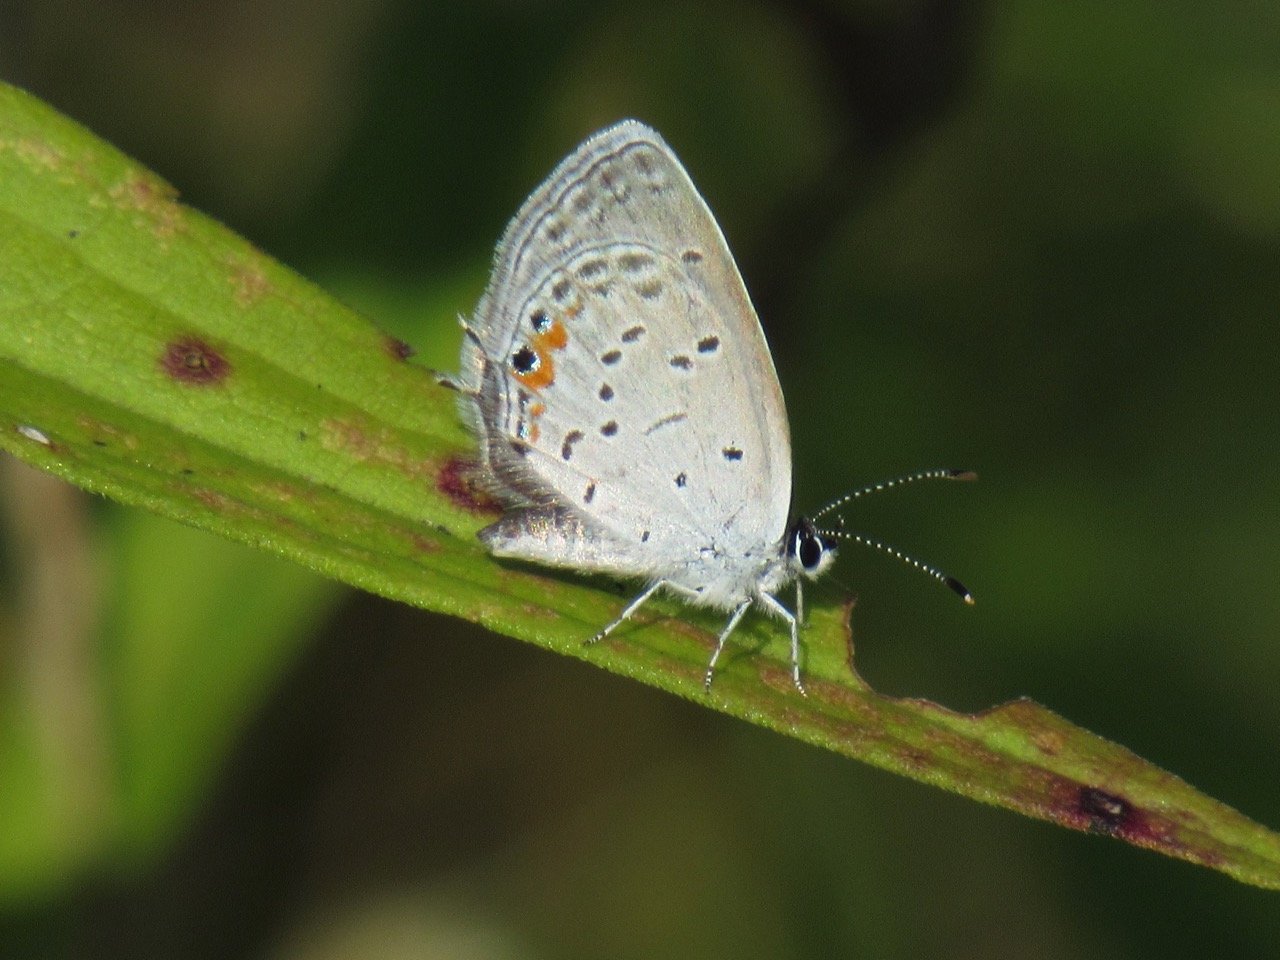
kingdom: Animalia
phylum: Arthropoda
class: Insecta
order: Lepidoptera
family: Lycaenidae
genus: Elkalyce
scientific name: Elkalyce comyntas
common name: Eastern Tailed-Blue
